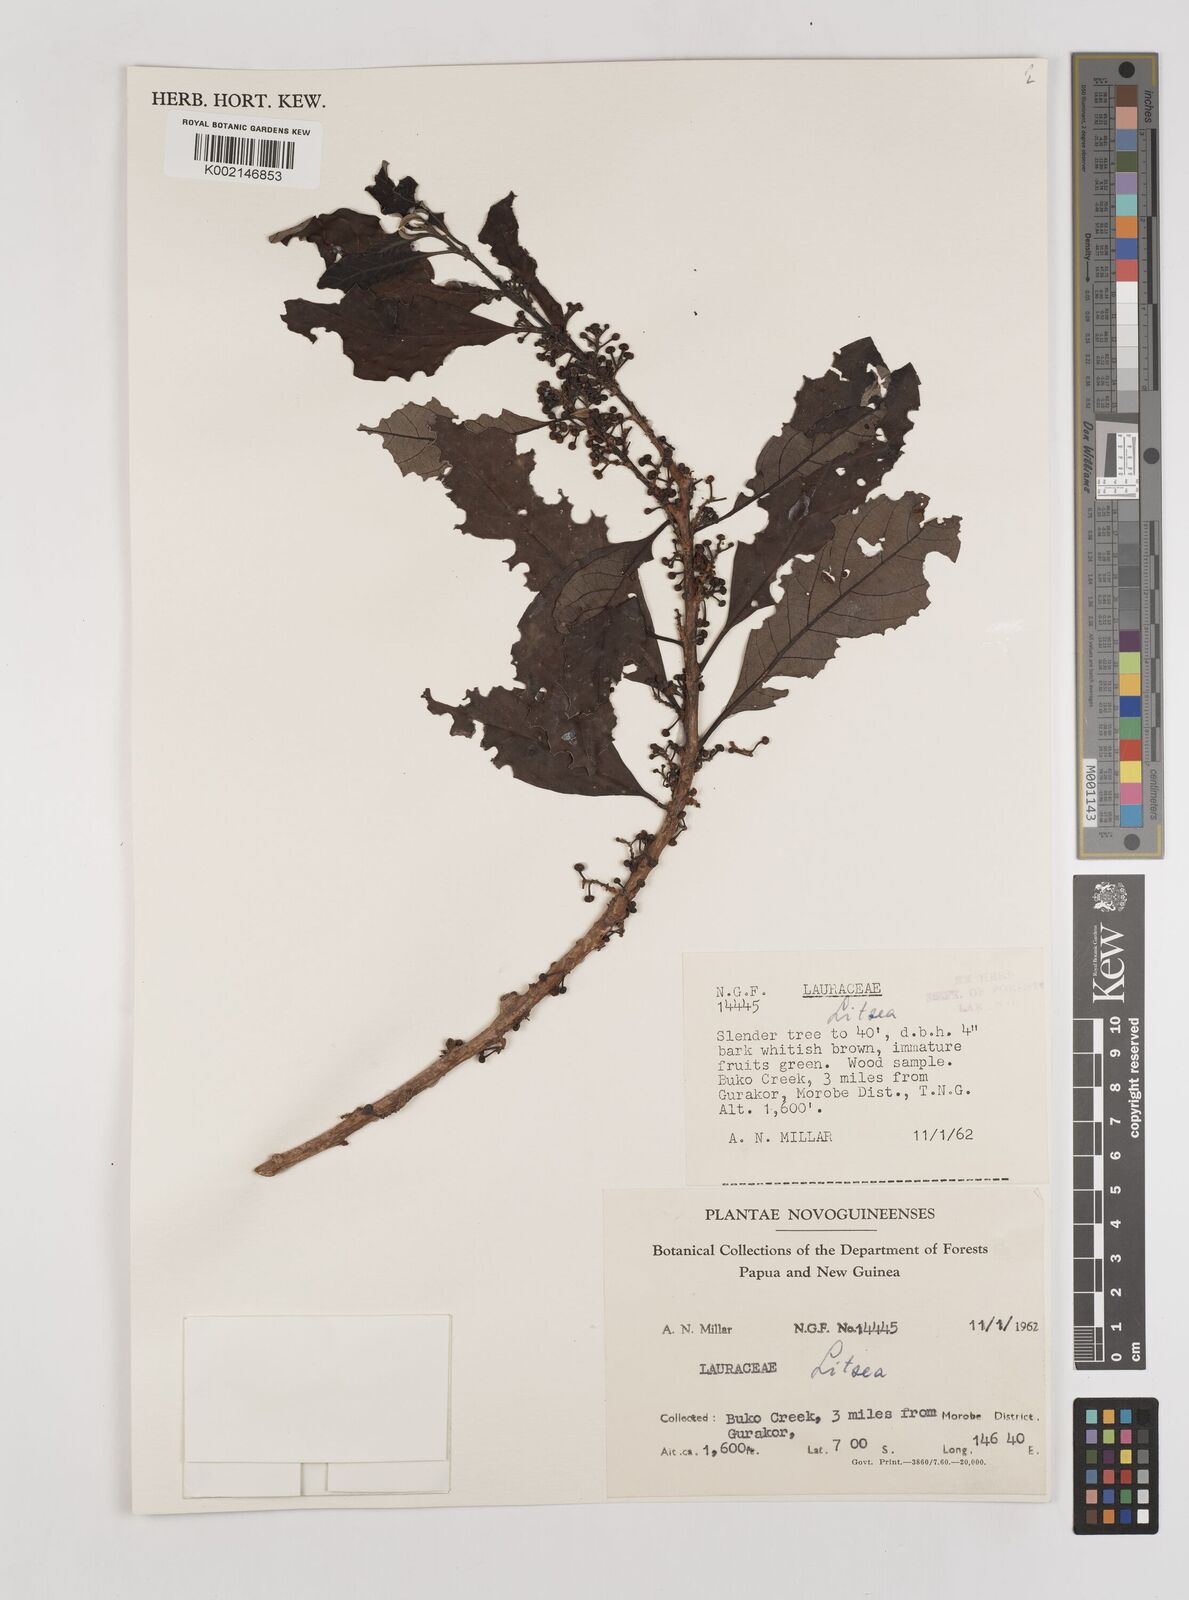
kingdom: Plantae
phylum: Tracheophyta
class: Magnoliopsida
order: Laurales
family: Lauraceae
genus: Litsea
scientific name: Litsea
